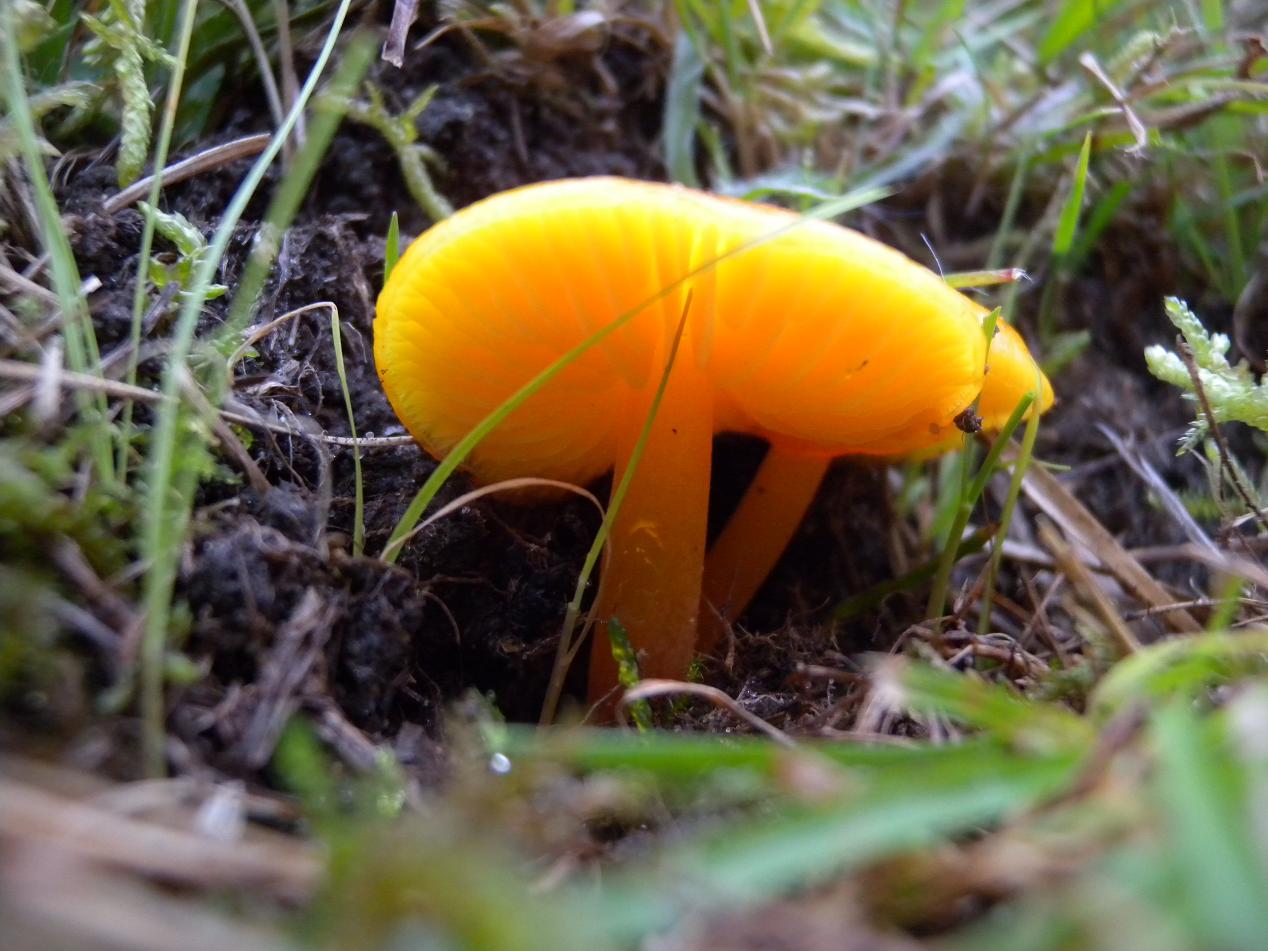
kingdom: Fungi
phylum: Basidiomycota
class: Agaricomycetes
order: Agaricales
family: Hygrophoraceae
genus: Hygrocybe
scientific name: Hygrocybe chlorophana
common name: gul vokshat
